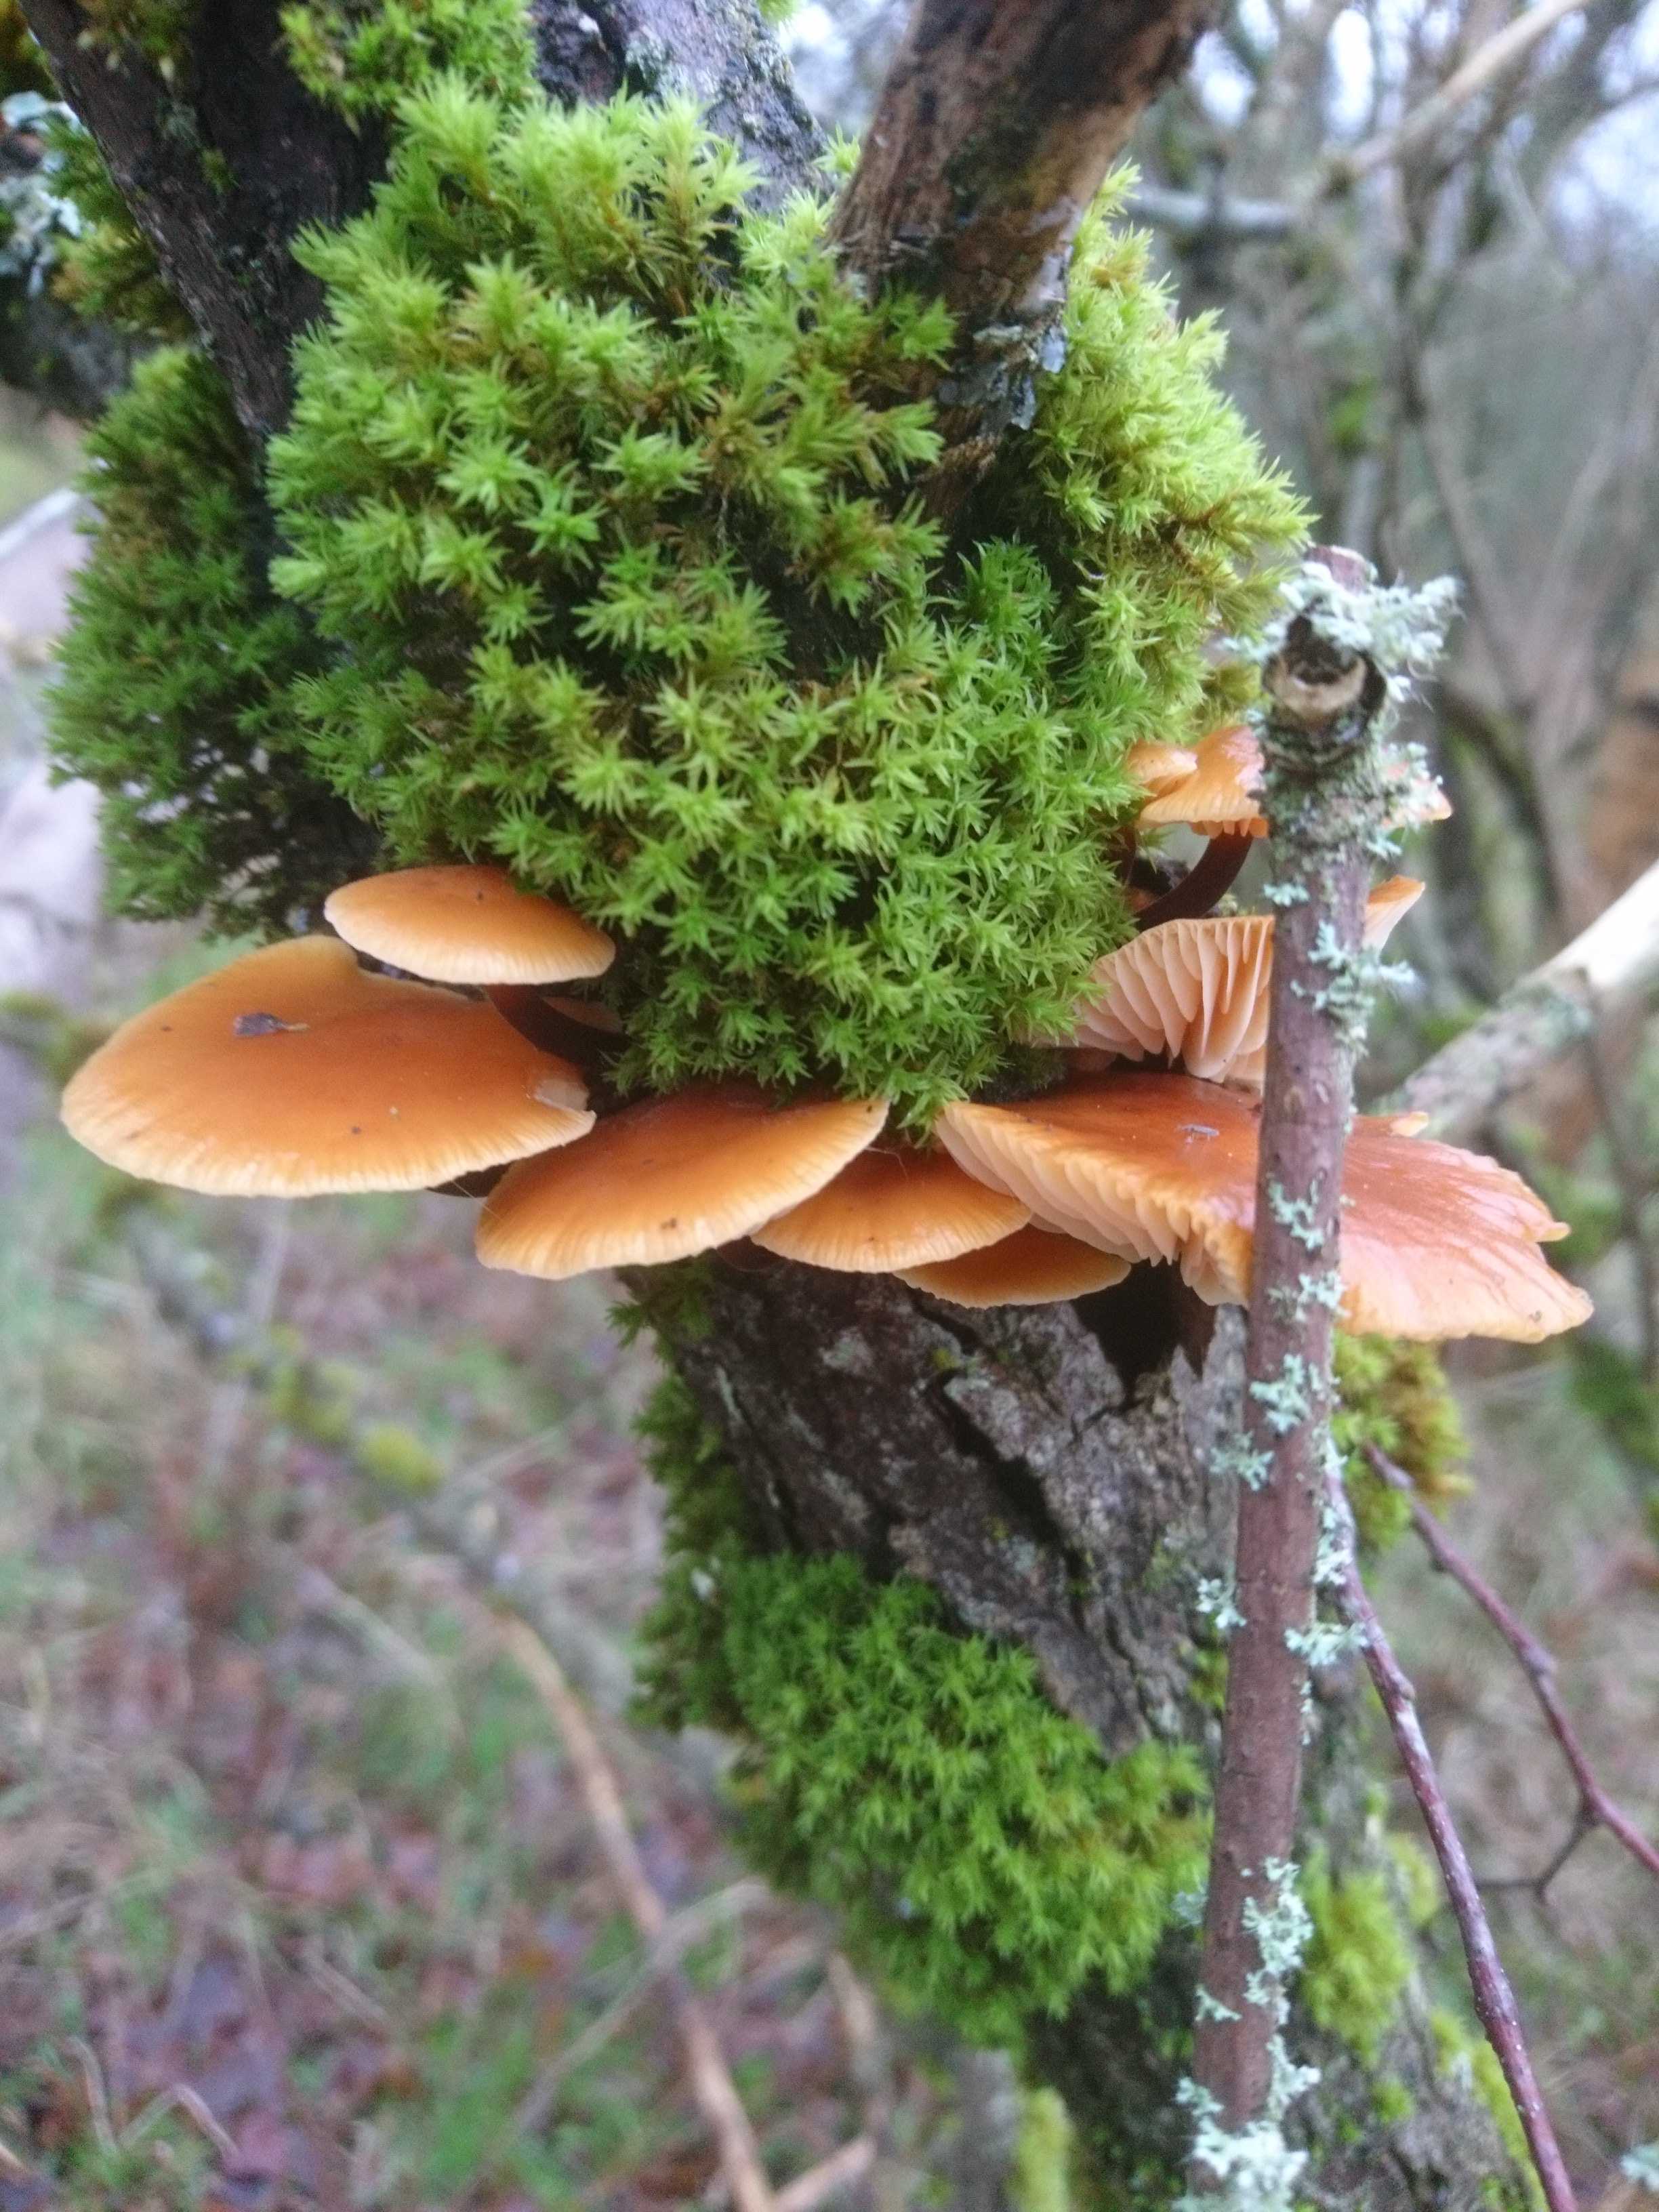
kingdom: Fungi
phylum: Basidiomycota
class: Agaricomycetes
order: Agaricales
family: Physalacriaceae
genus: Flammulina
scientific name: Flammulina
